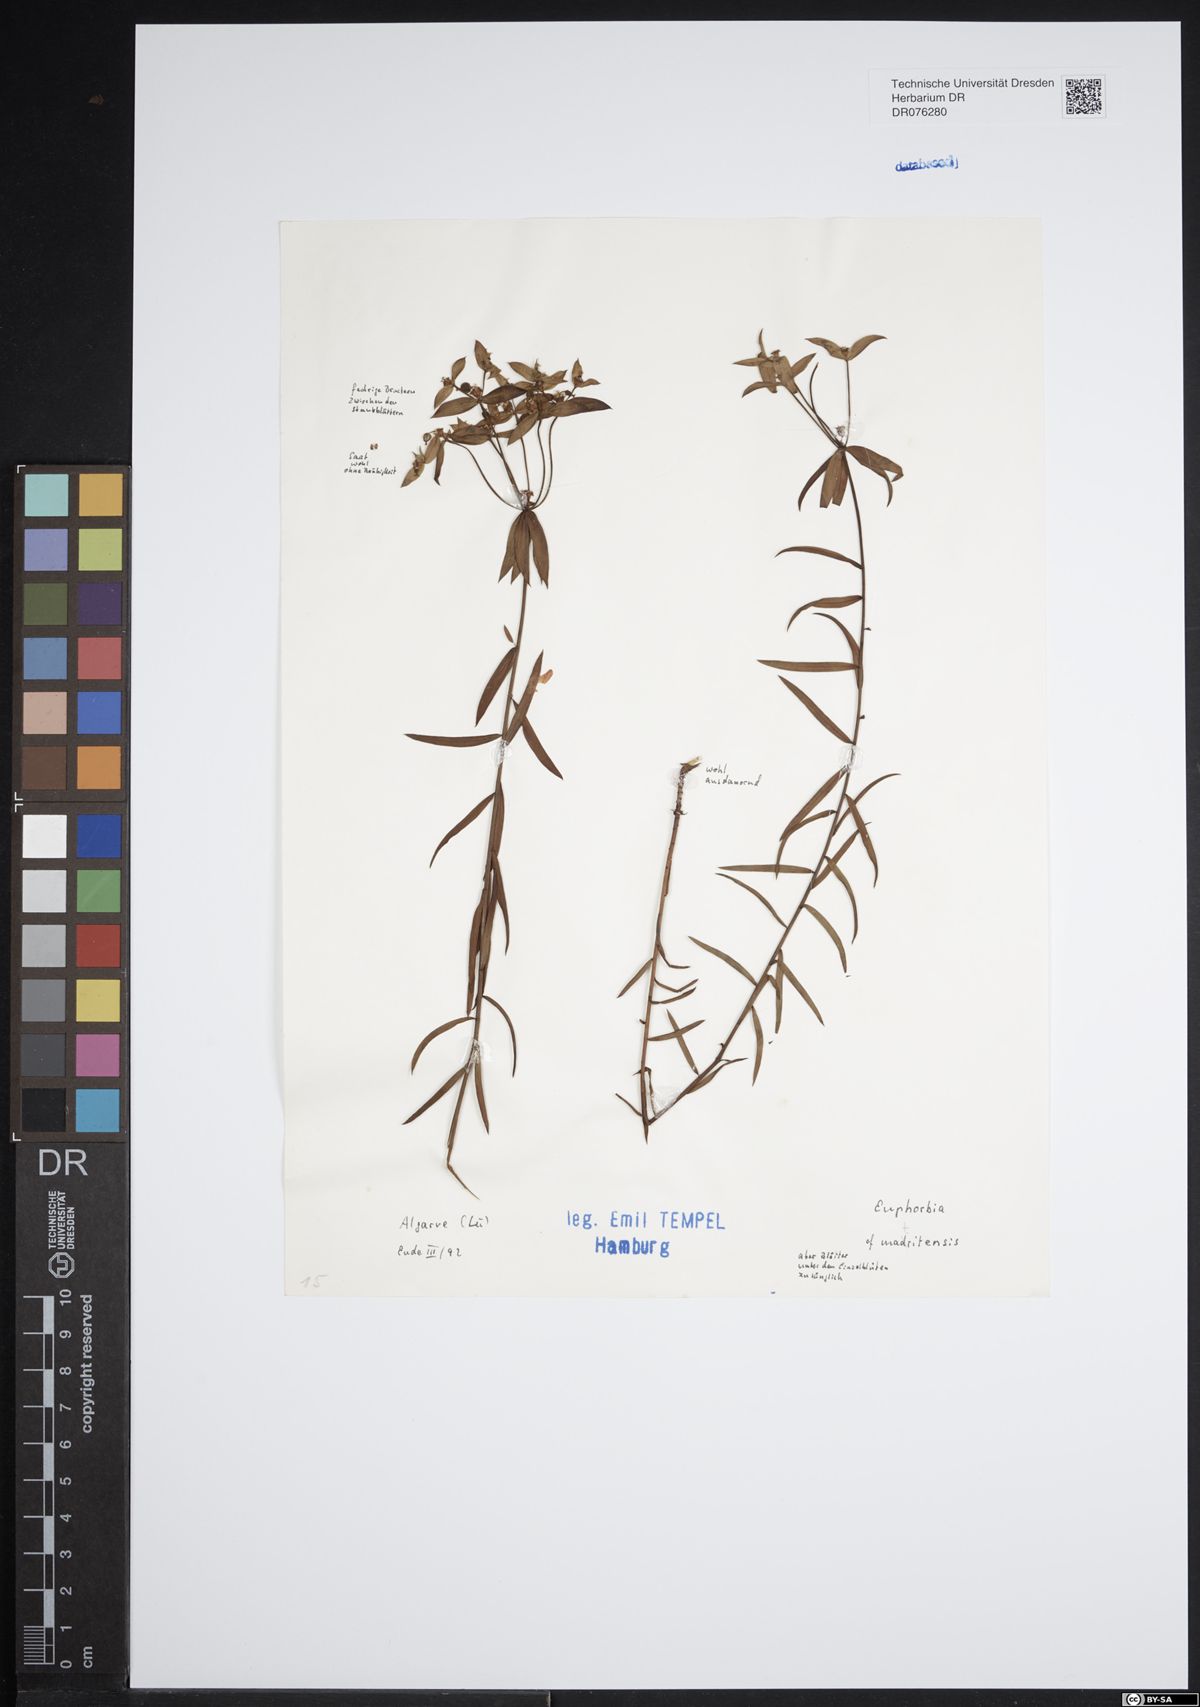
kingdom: Plantae
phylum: Tracheophyta
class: Magnoliopsida
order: Malpighiales
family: Euphorbiaceae
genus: Euphorbia
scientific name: Euphorbia matritensis
